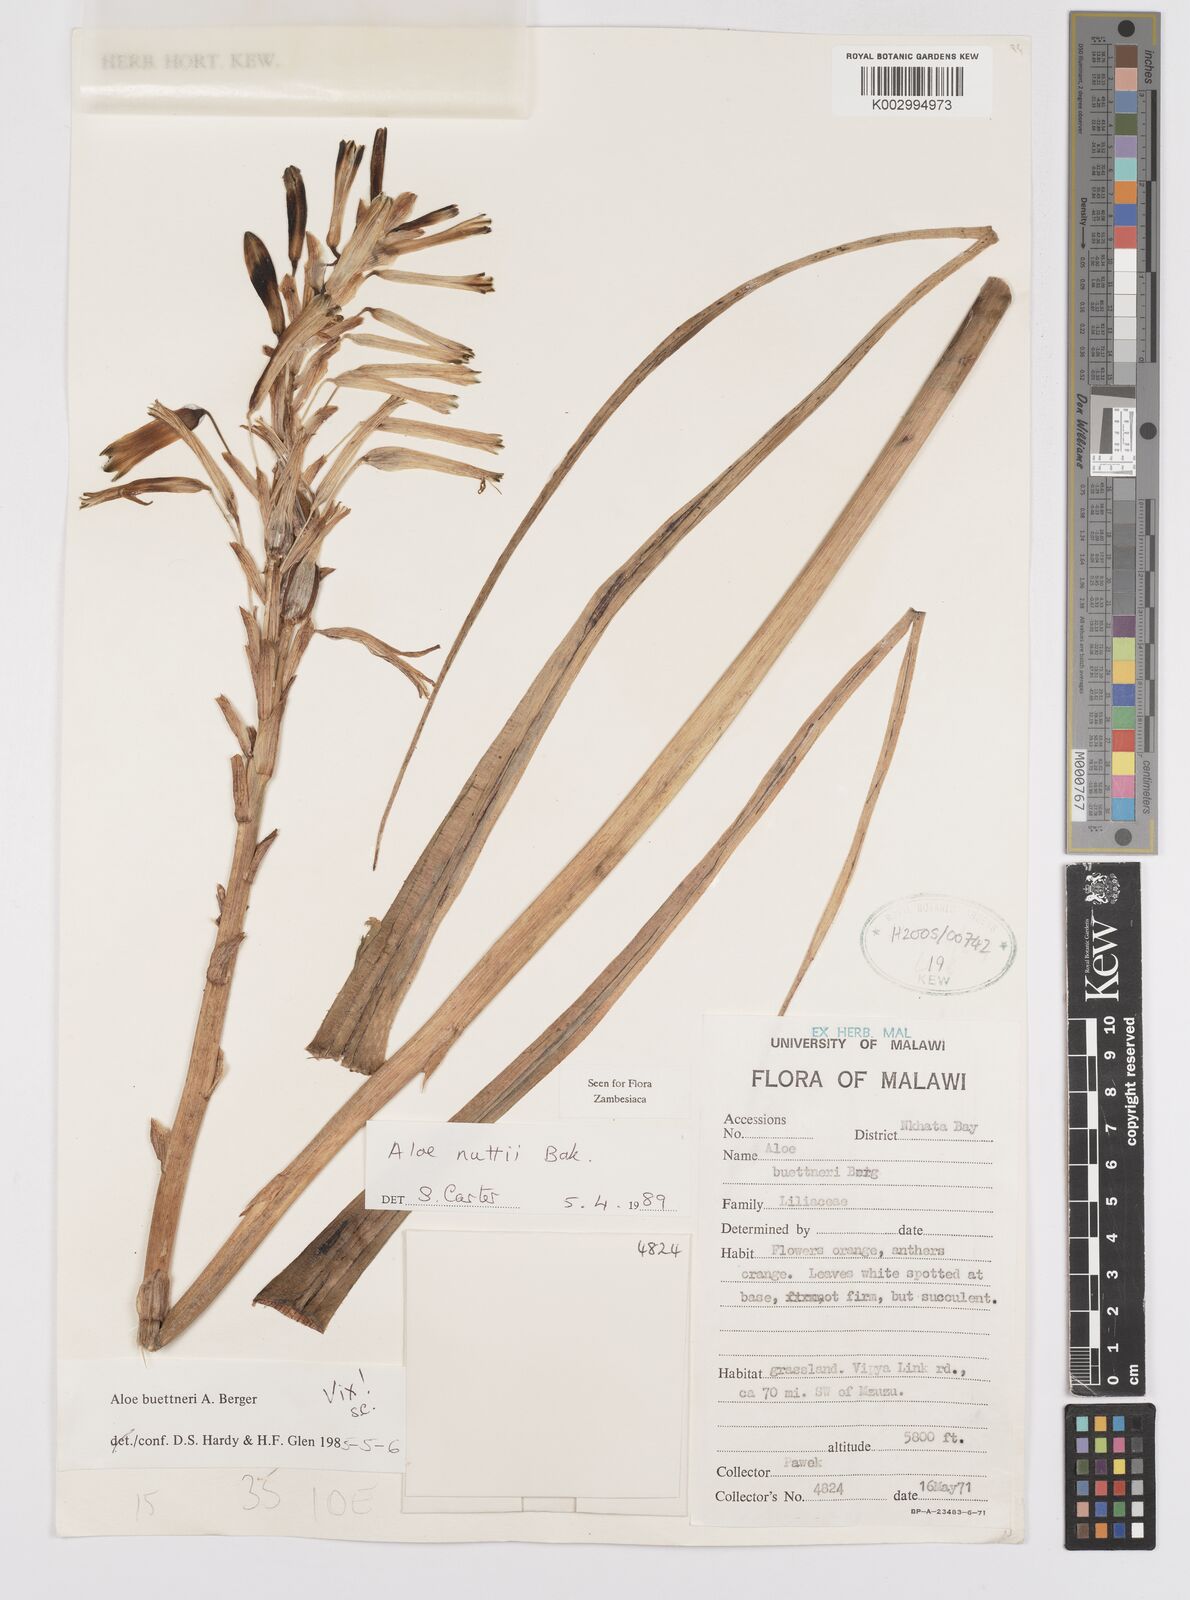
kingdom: Plantae
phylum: Tracheophyta
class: Liliopsida
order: Asparagales
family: Asphodelaceae
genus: Aloe
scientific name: Aloe nuttii
